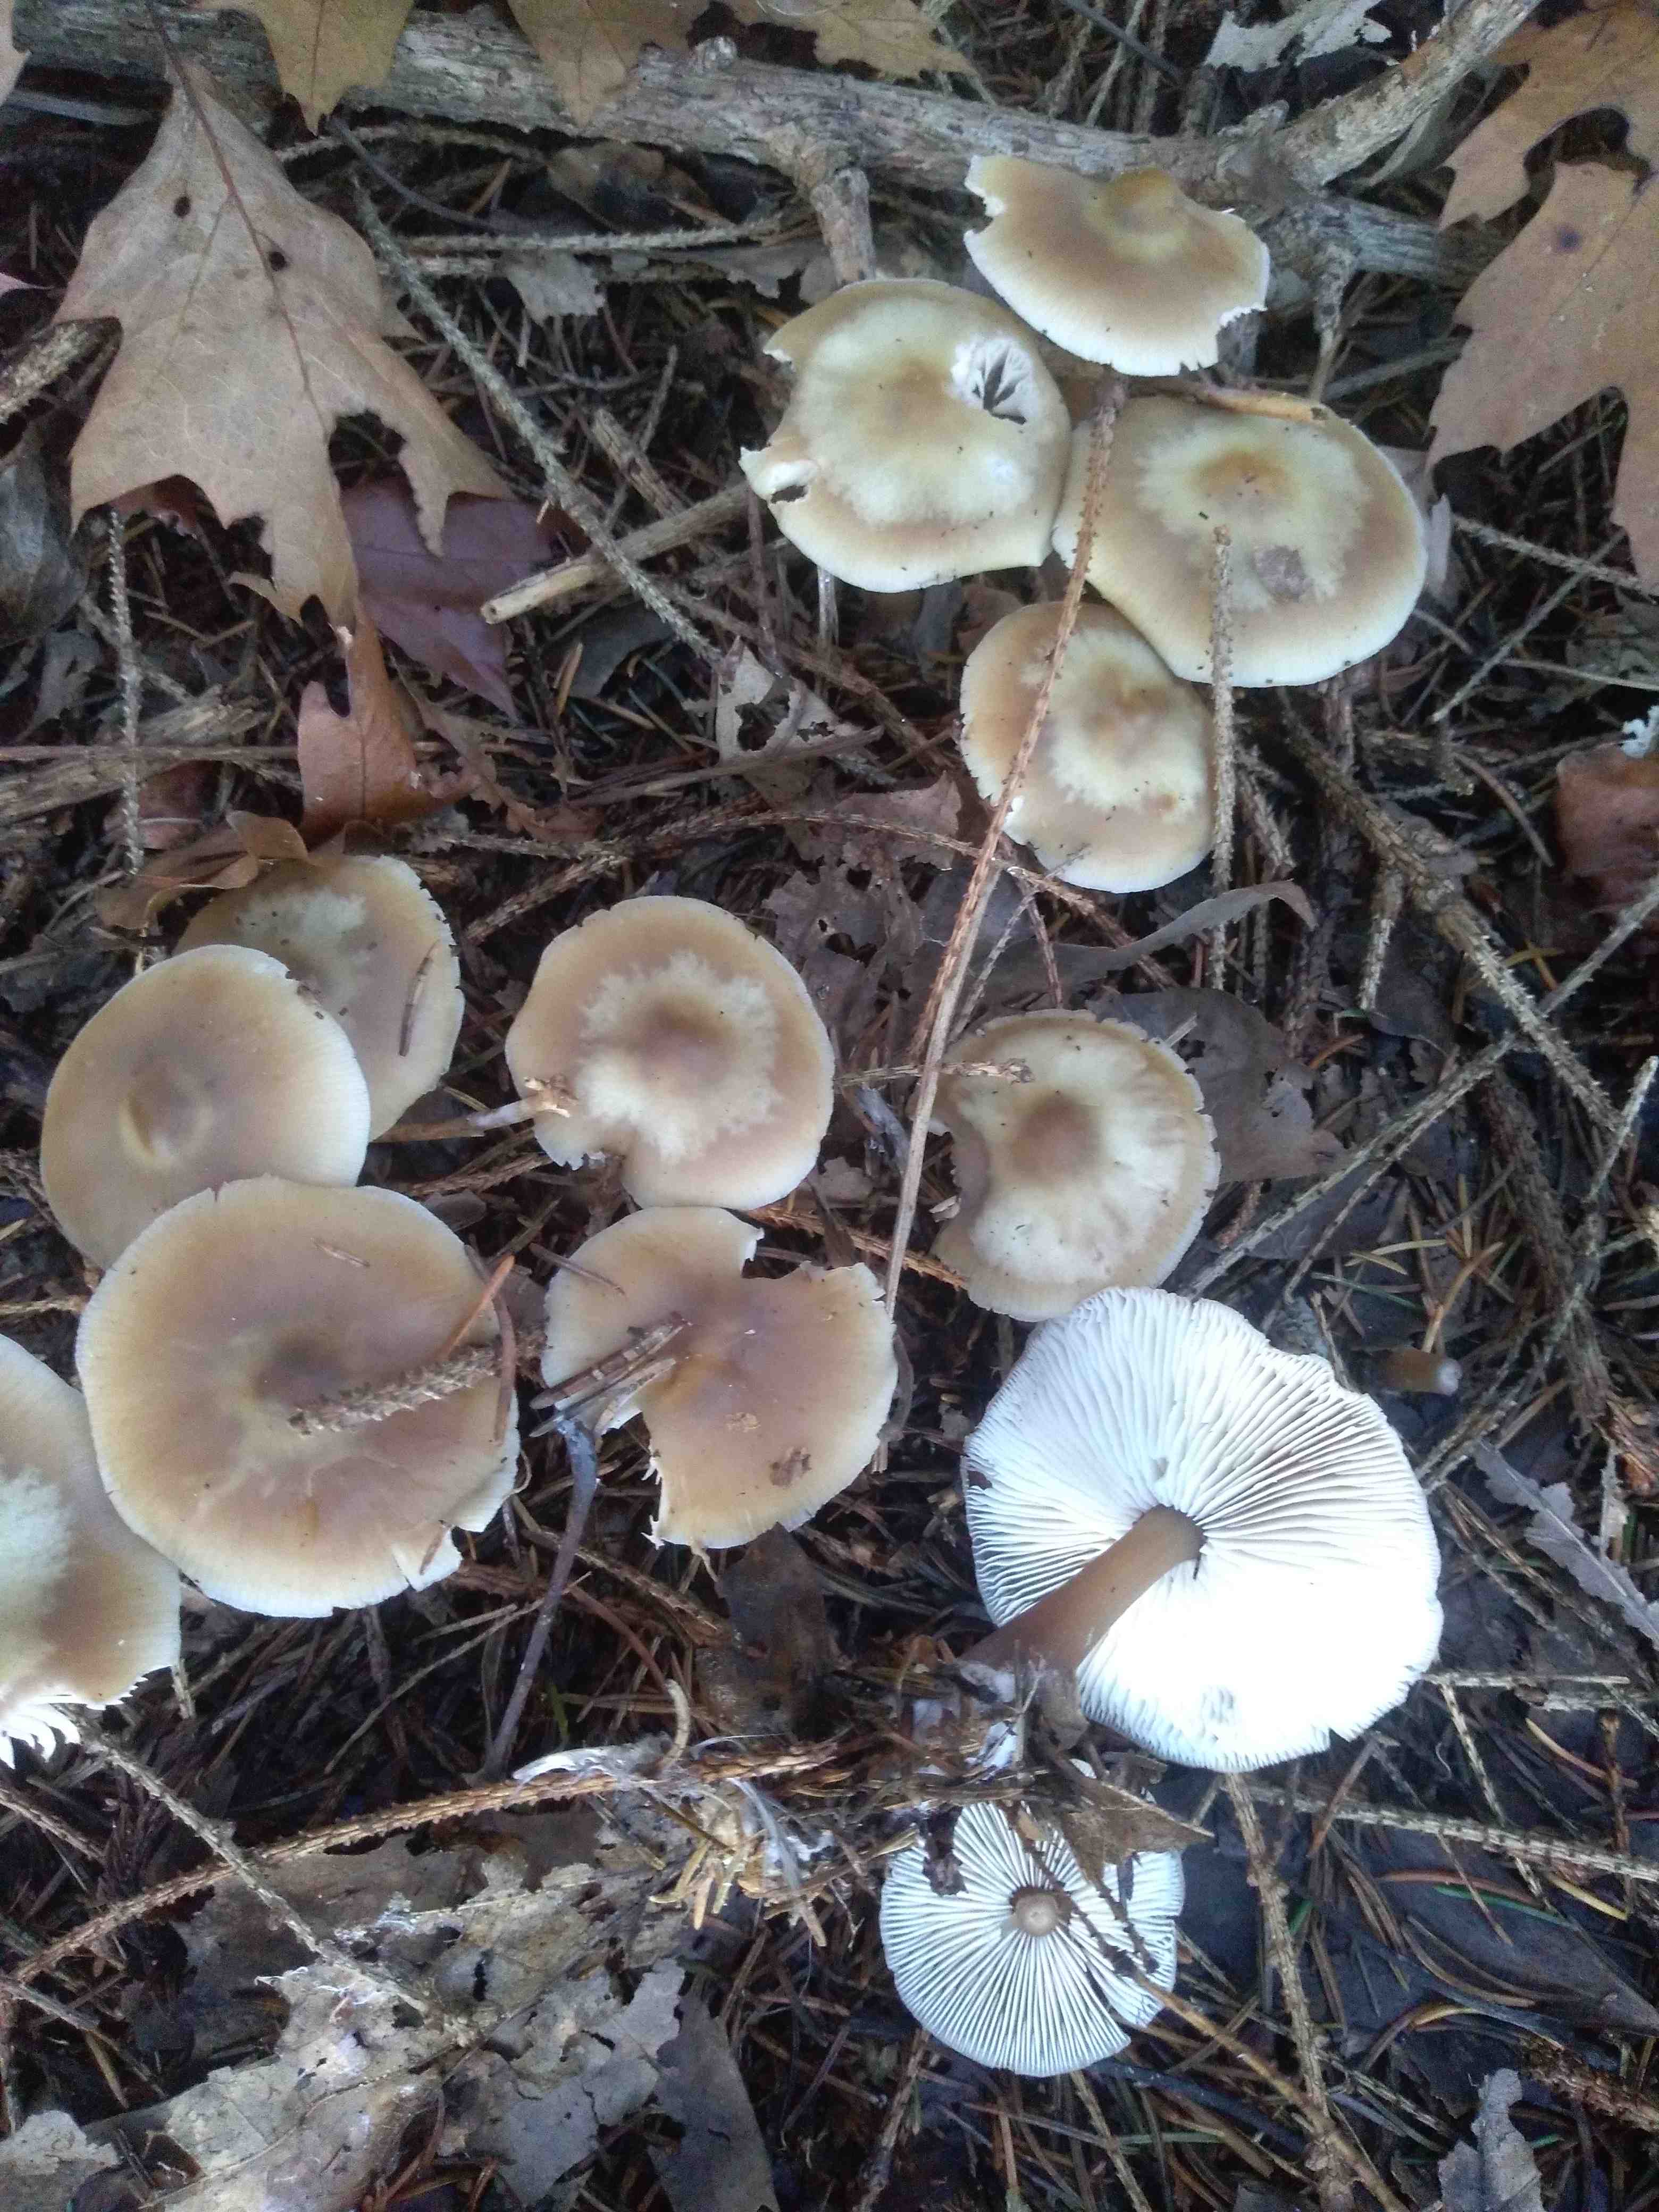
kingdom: Fungi
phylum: Basidiomycota
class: Agaricomycetes
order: Agaricales
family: Omphalotaceae
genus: Rhodocollybia
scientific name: Rhodocollybia asema
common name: horngrå fladhat
